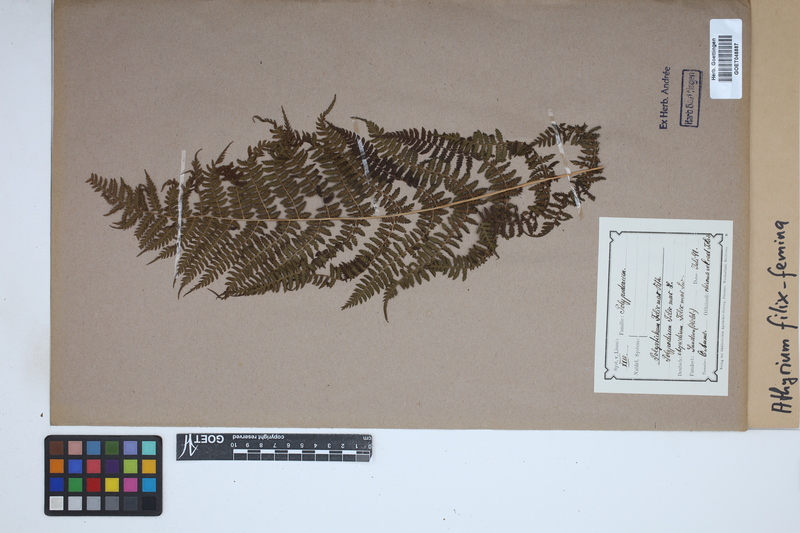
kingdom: Plantae
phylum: Tracheophyta
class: Polypodiopsida
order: Polypodiales
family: Athyriaceae
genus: Athyrium
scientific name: Athyrium filix-femina
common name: Lady fern
